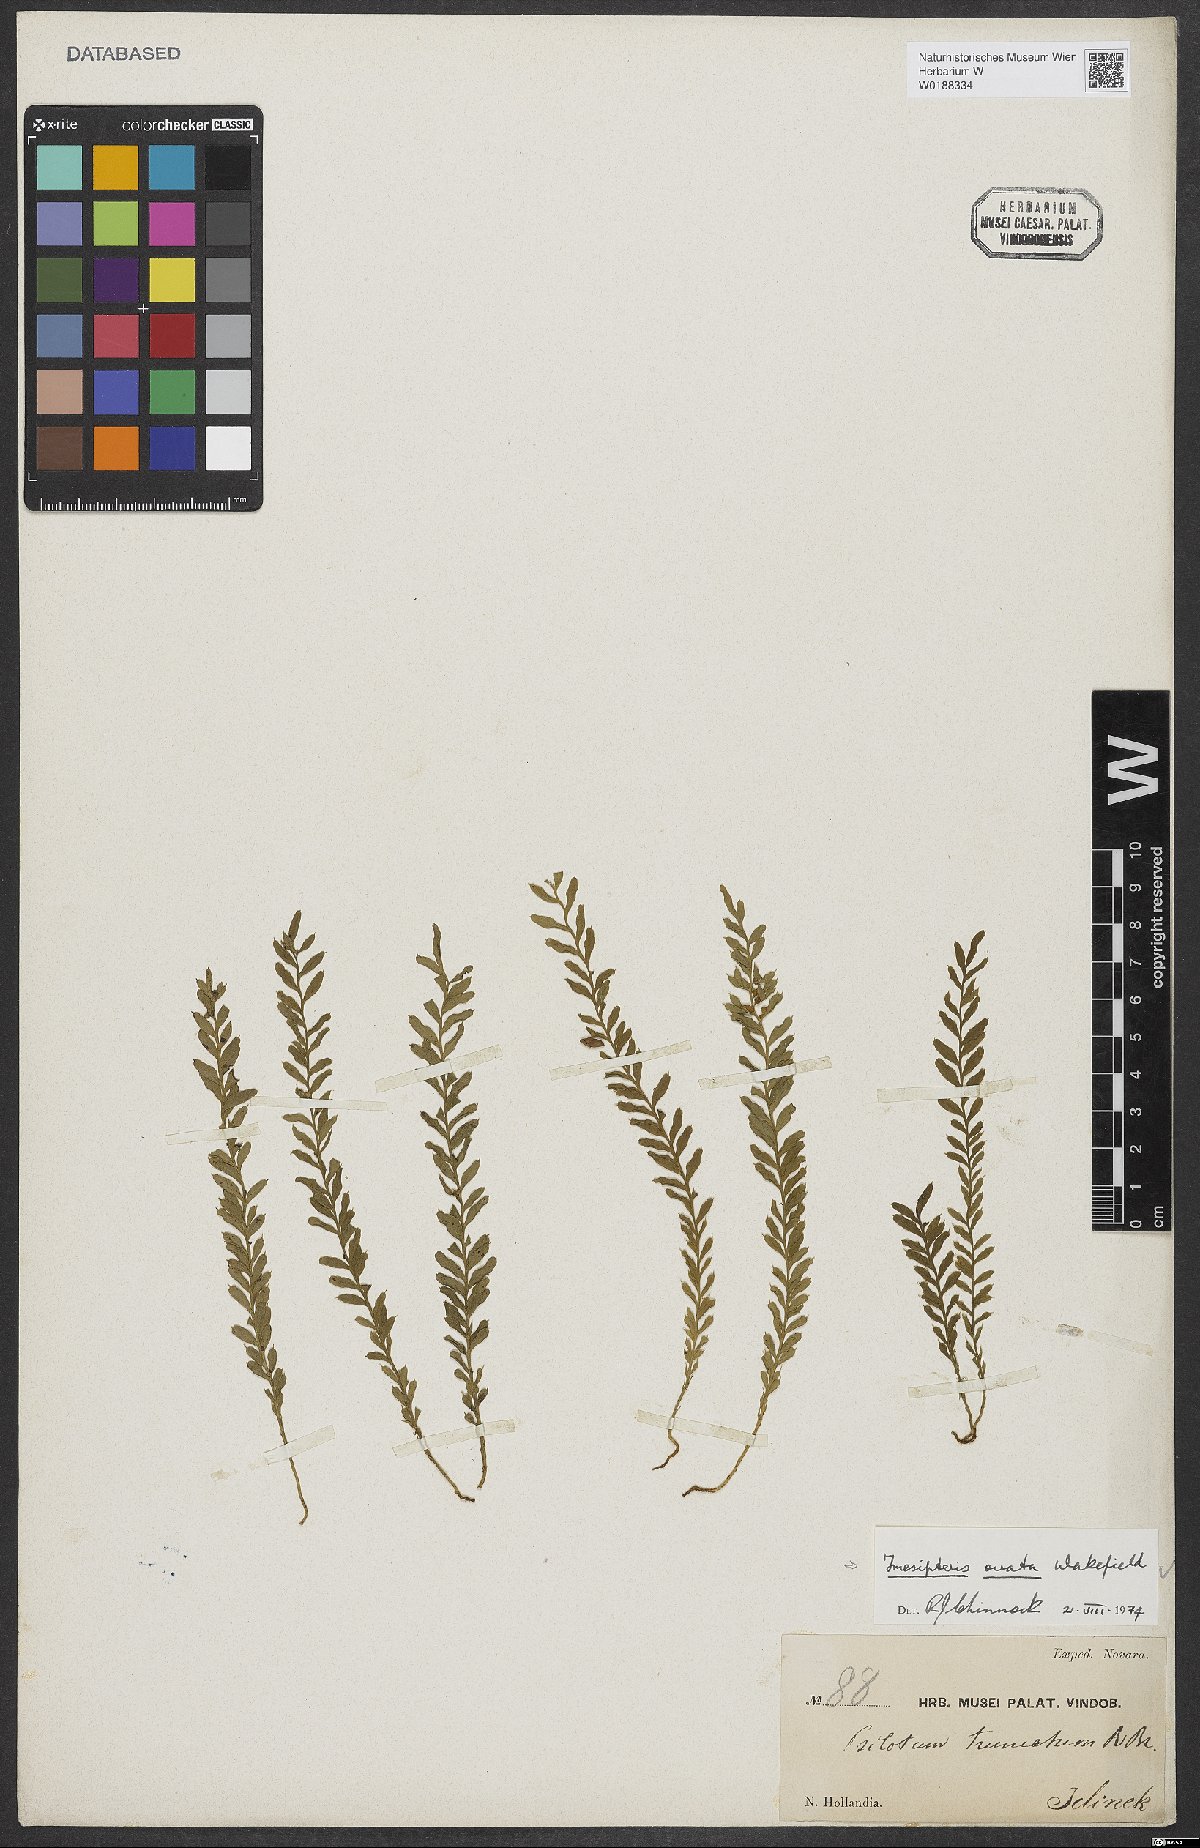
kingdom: Plantae
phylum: Tracheophyta
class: Polypodiopsida
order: Psilotales
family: Psilotaceae
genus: Tmesipteris
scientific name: Tmesipteris ovata
